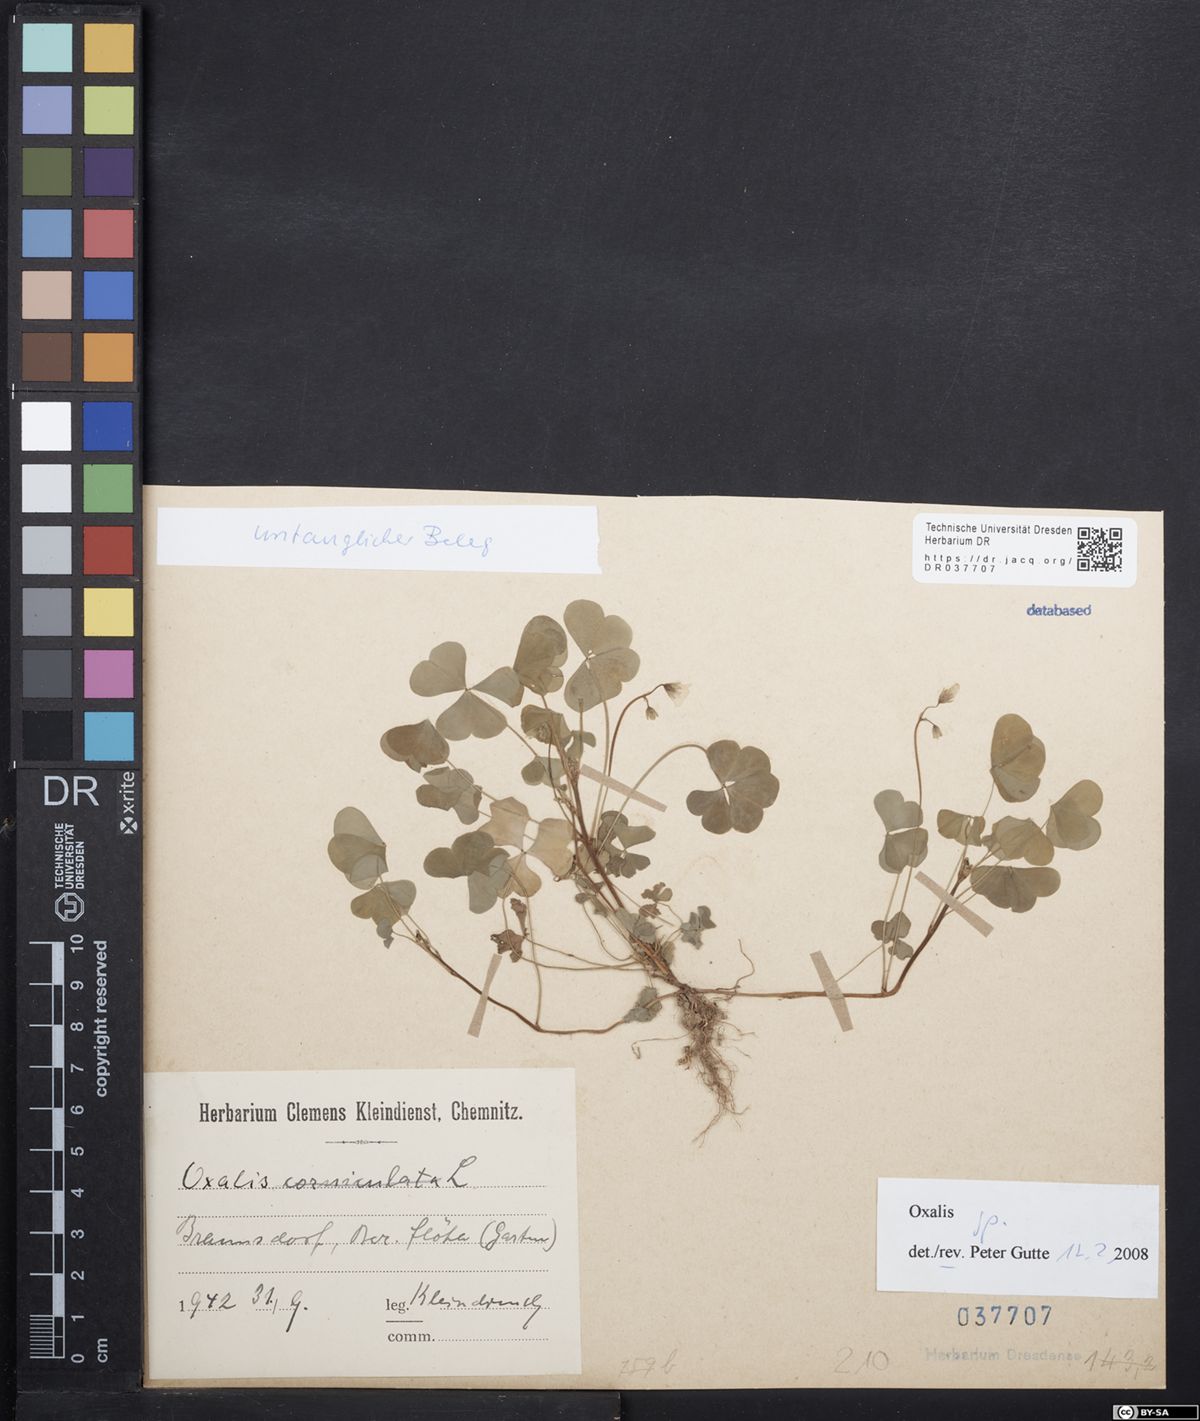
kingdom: Plantae
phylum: Tracheophyta
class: Magnoliopsida
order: Oxalidales
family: Oxalidaceae
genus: Oxalis
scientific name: Oxalis
